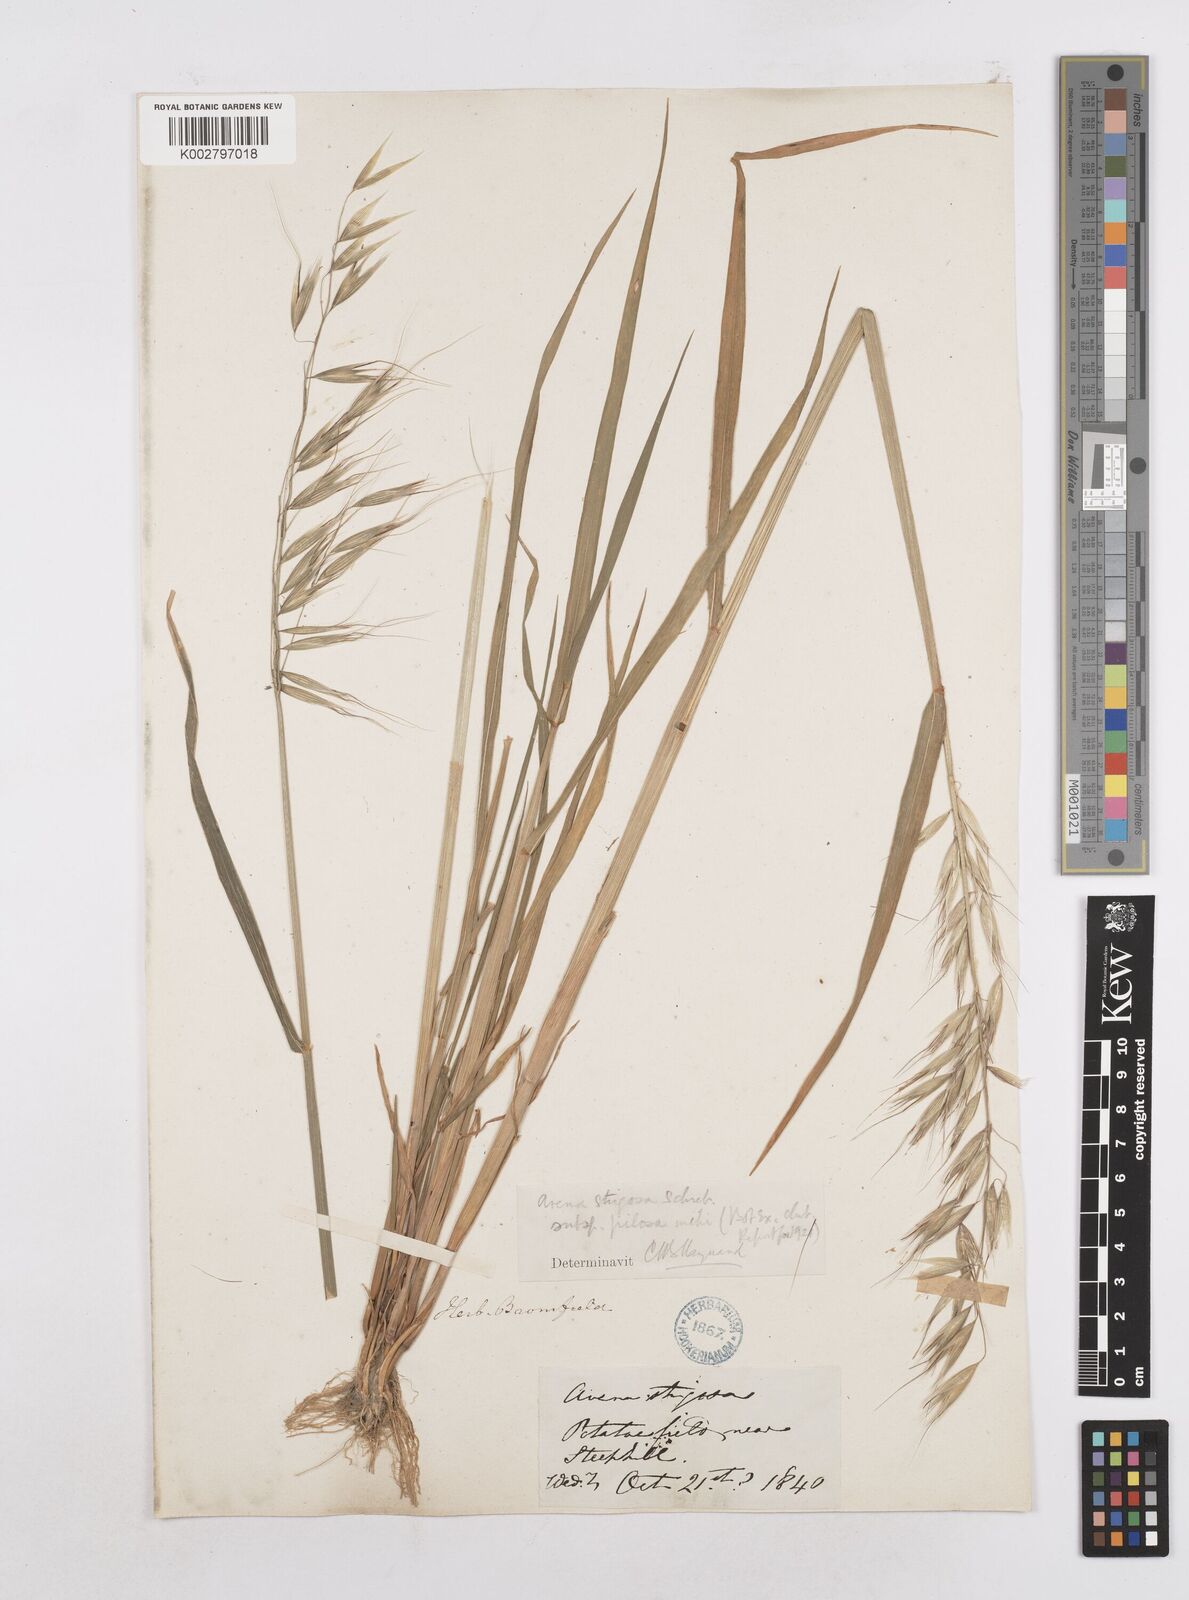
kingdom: Plantae
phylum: Tracheophyta
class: Liliopsida
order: Poales
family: Poaceae
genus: Avena
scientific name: Avena strigosa
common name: Bristle oat
